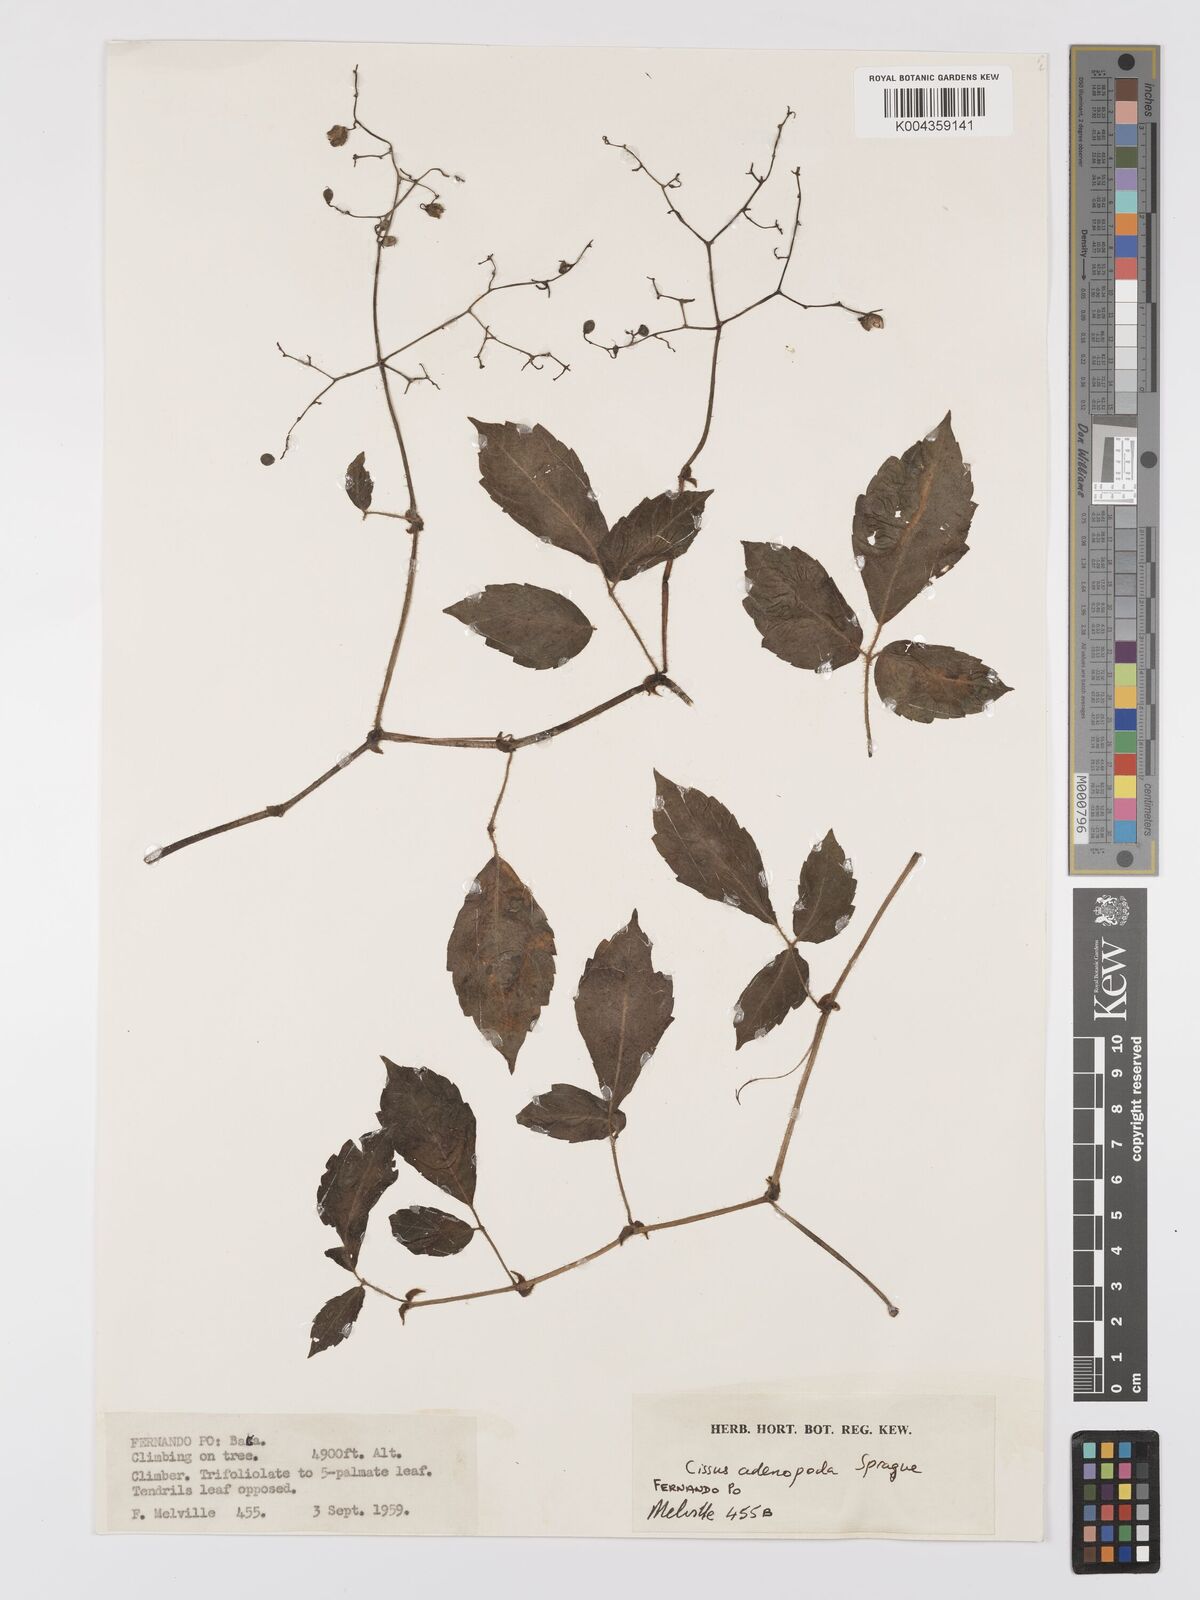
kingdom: Plantae
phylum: Tracheophyta
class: Magnoliopsida
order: Vitales
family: Vitaceae
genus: Cyphostemma
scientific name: Cyphostemma adenopodum
